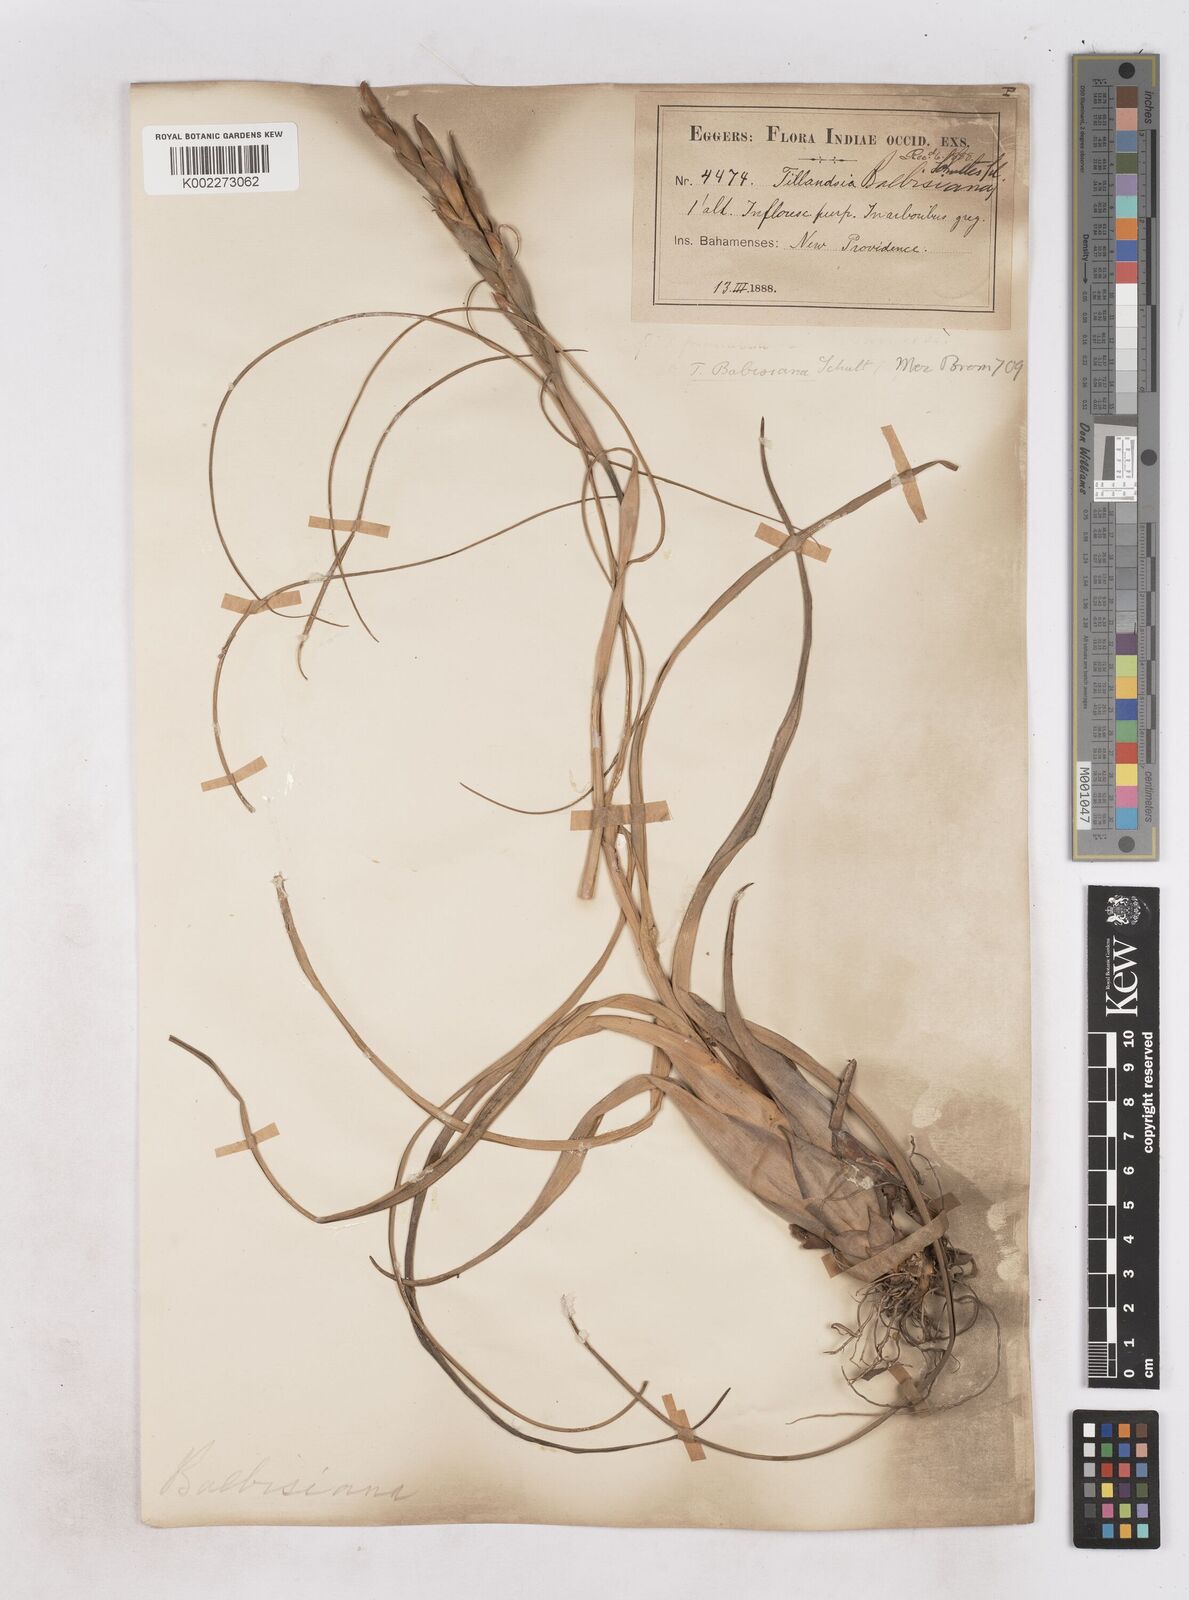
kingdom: Plantae
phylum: Tracheophyta
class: Liliopsida
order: Poales
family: Bromeliaceae
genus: Tillandsia
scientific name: Tillandsia balbisiana
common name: Northern needleleaf
